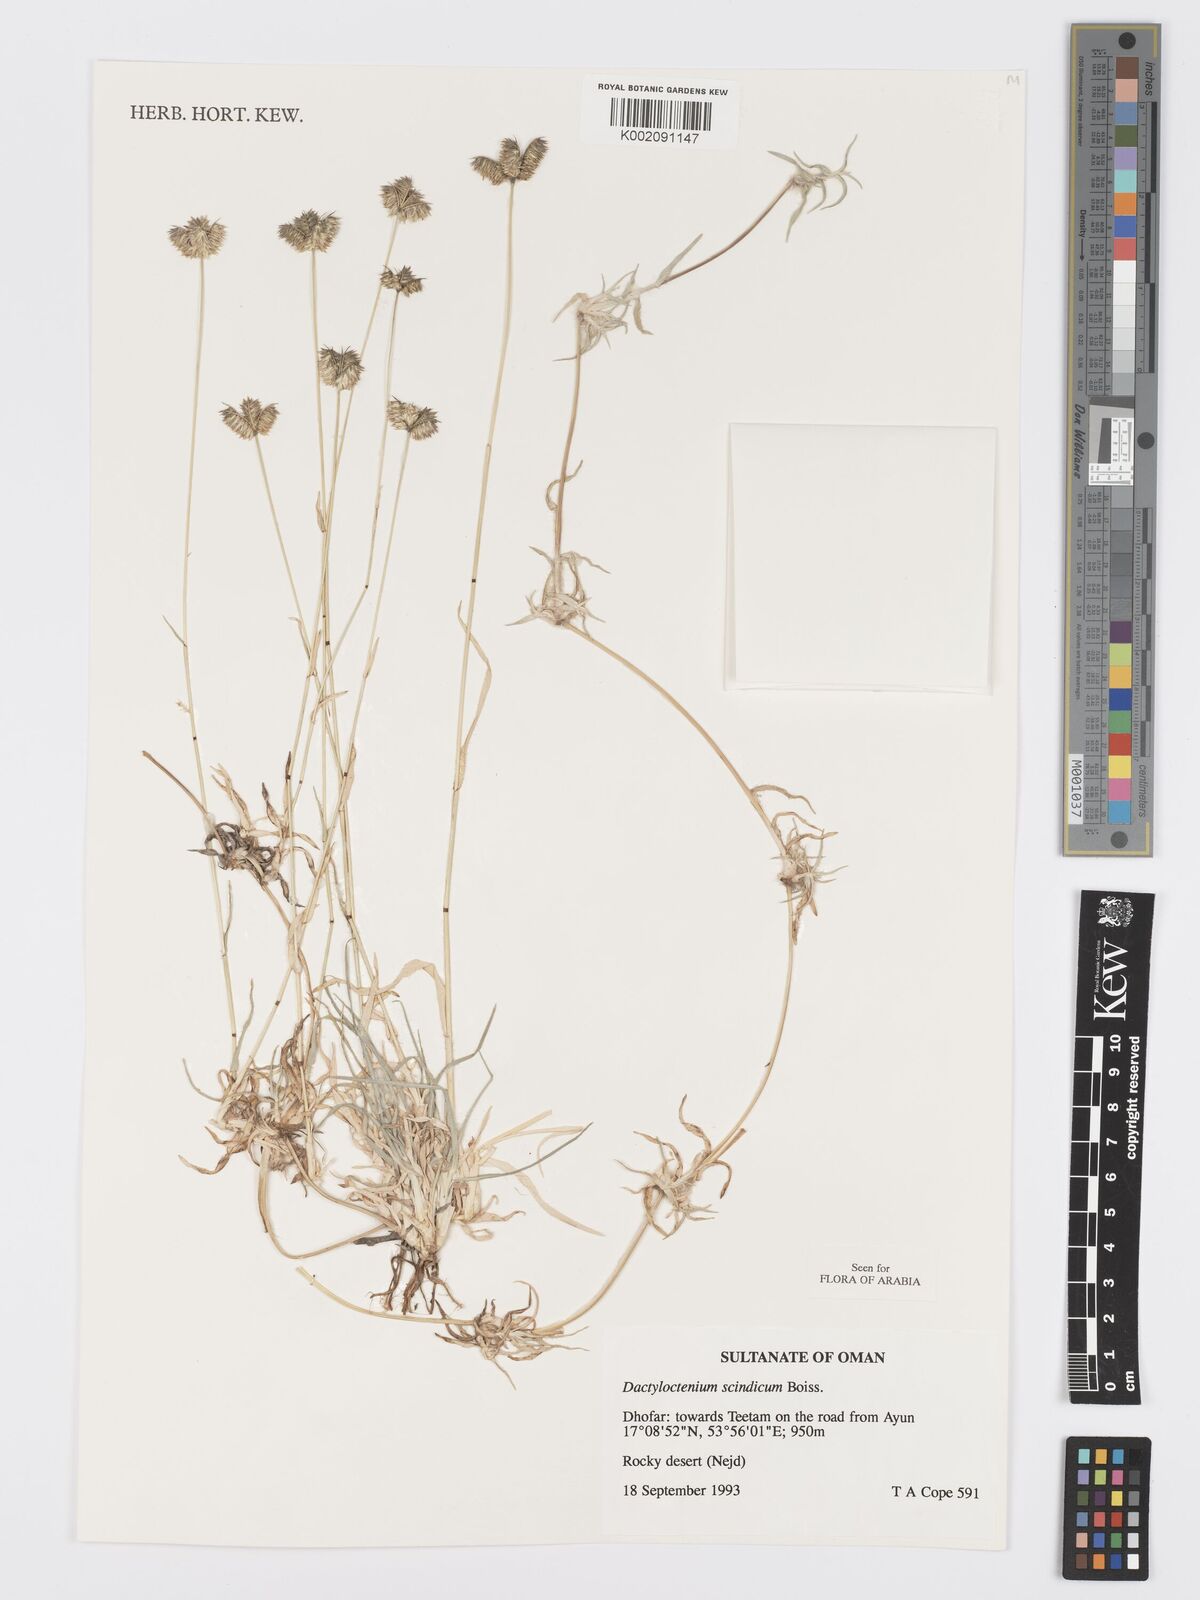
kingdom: Plantae
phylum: Tracheophyta
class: Liliopsida
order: Poales
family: Poaceae
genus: Dactyloctenium
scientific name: Dactyloctenium scindicum
